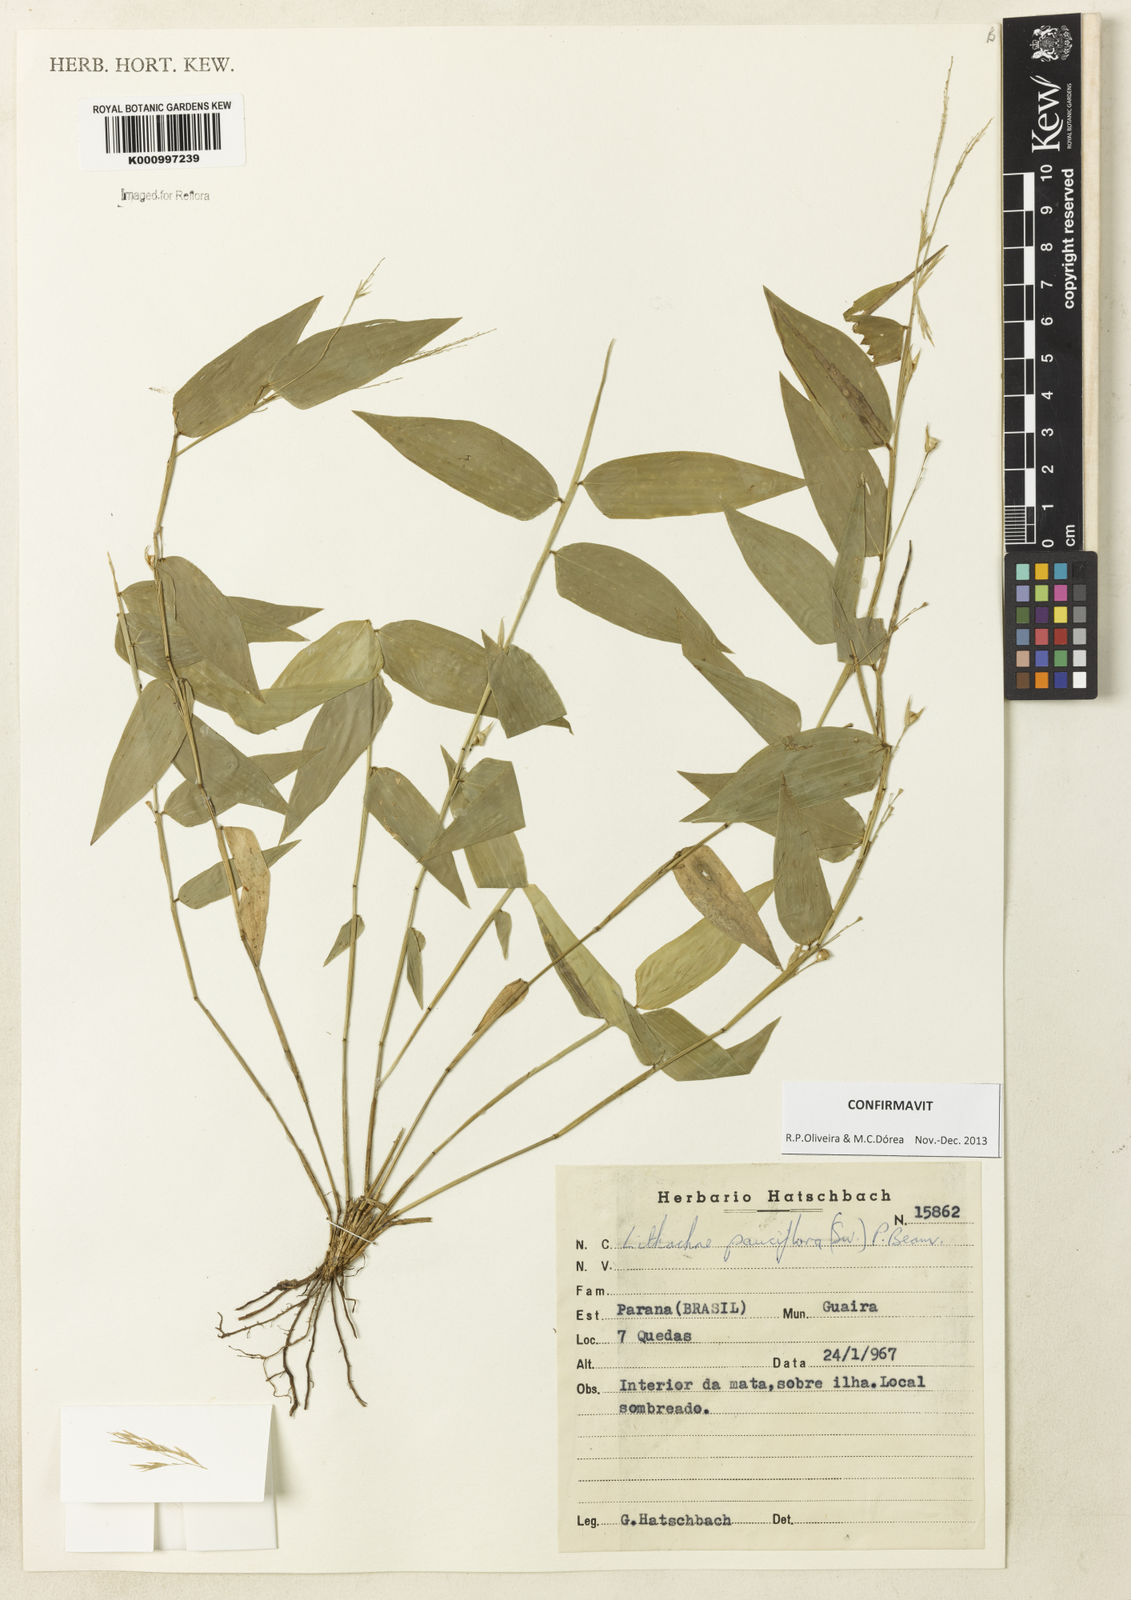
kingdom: Plantae
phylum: Tracheophyta
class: Liliopsida
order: Poales
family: Poaceae
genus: Lithachne
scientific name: Lithachne pauciflora
